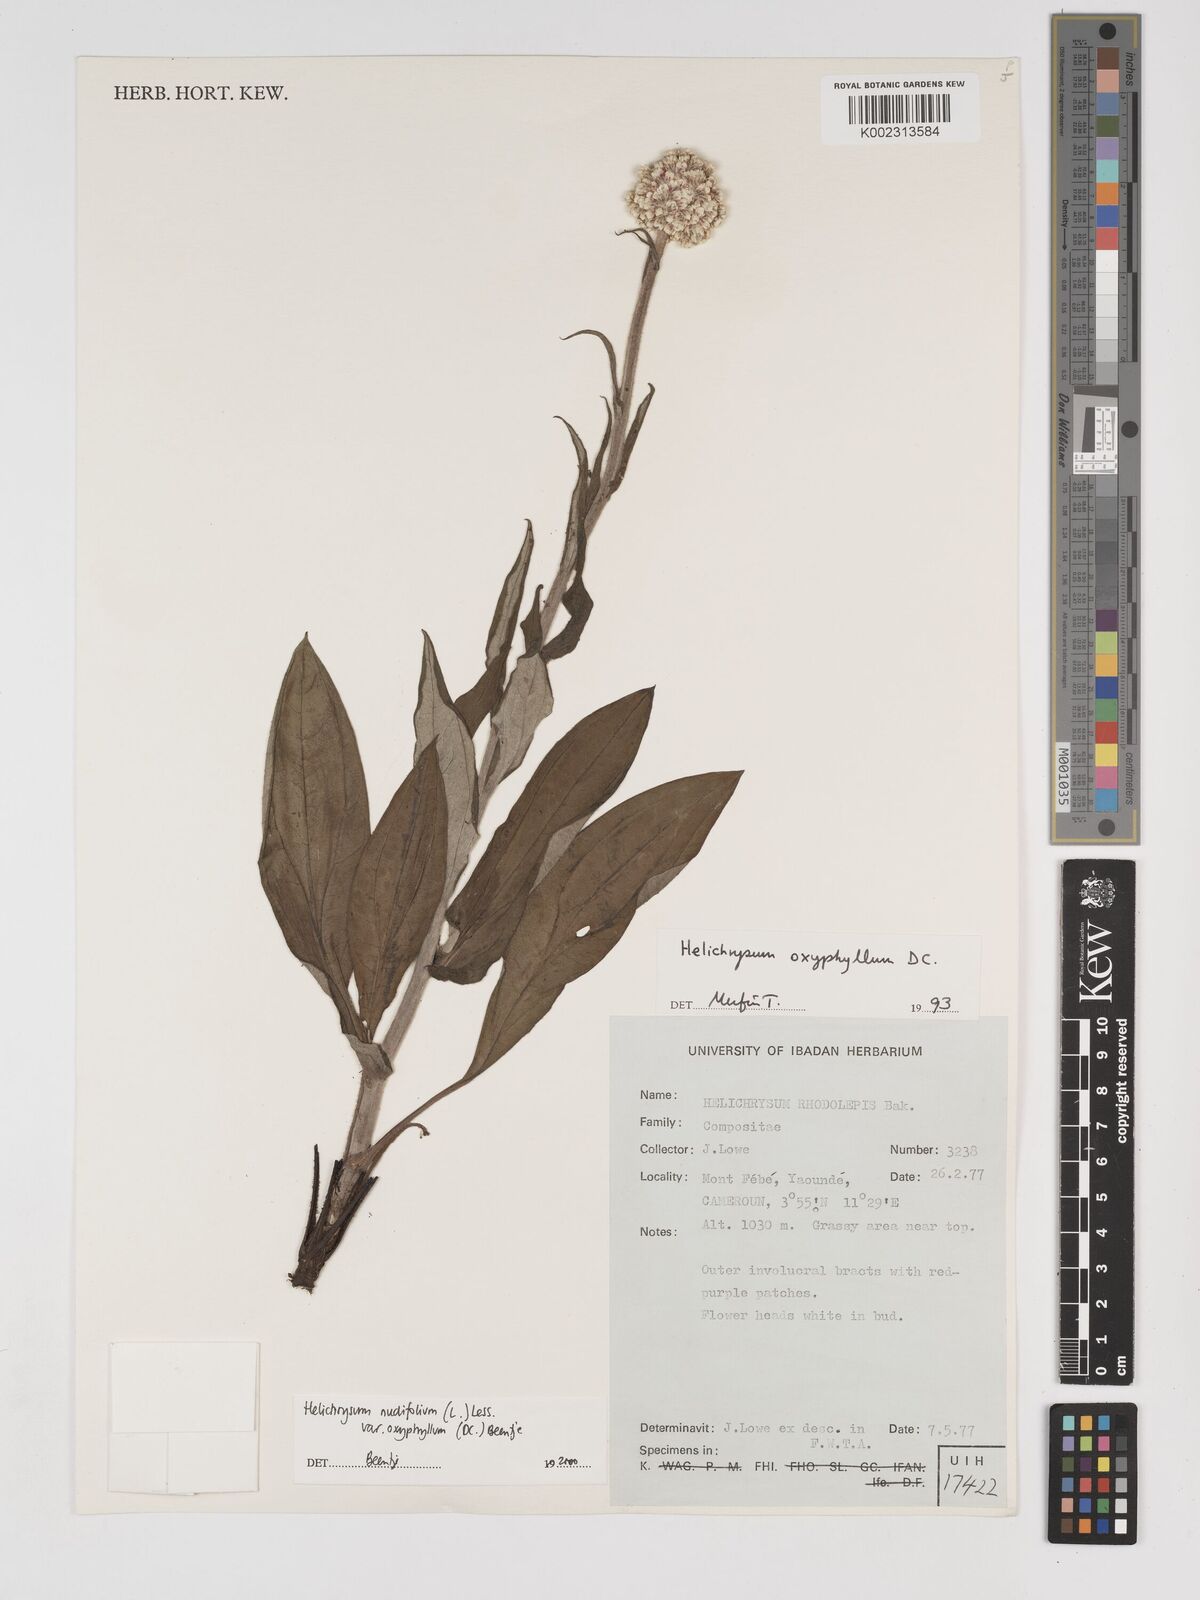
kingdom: Plantae
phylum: Tracheophyta
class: Magnoliopsida
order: Asterales
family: Asteraceae
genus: Helichrysum
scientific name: Helichrysum nudifolium
